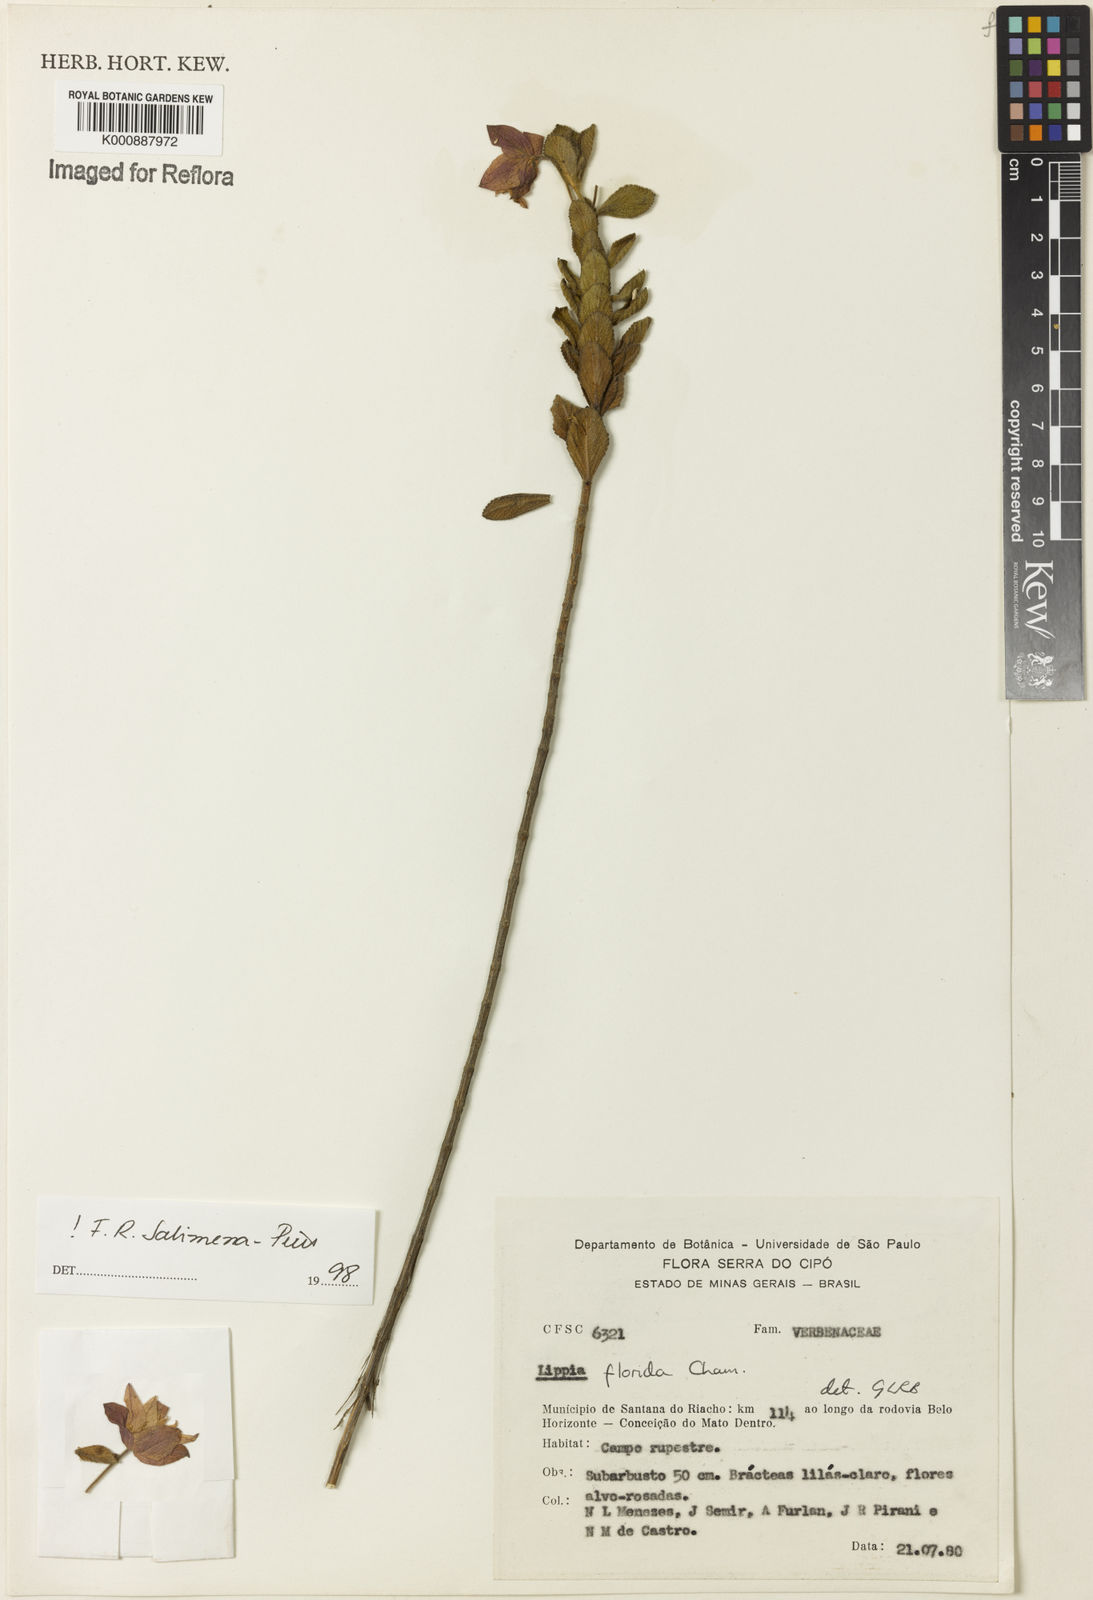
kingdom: Plantae
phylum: Tracheophyta
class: Magnoliopsida
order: Lamiales
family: Verbenaceae
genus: Lippia
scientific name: Lippia florida
